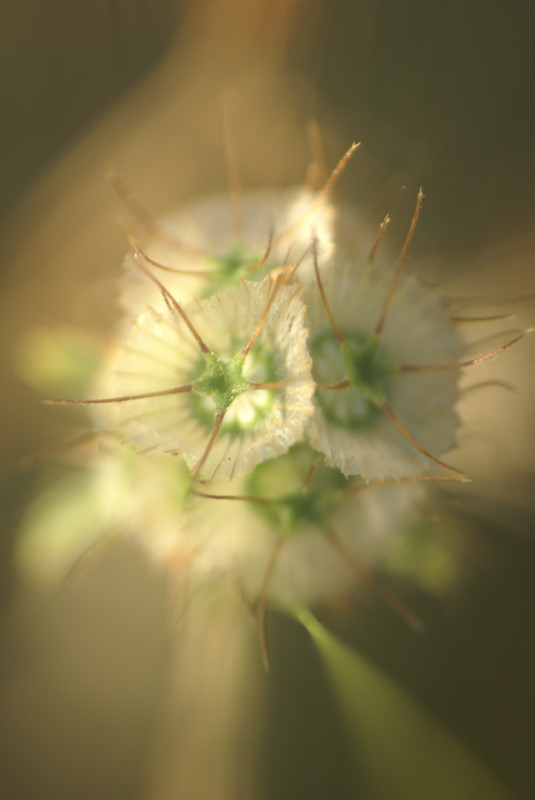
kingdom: Plantae
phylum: Tracheophyta
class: Magnoliopsida
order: Dipsacales
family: Caprifoliaceae
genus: Scabiosa
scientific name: Scabiosa
